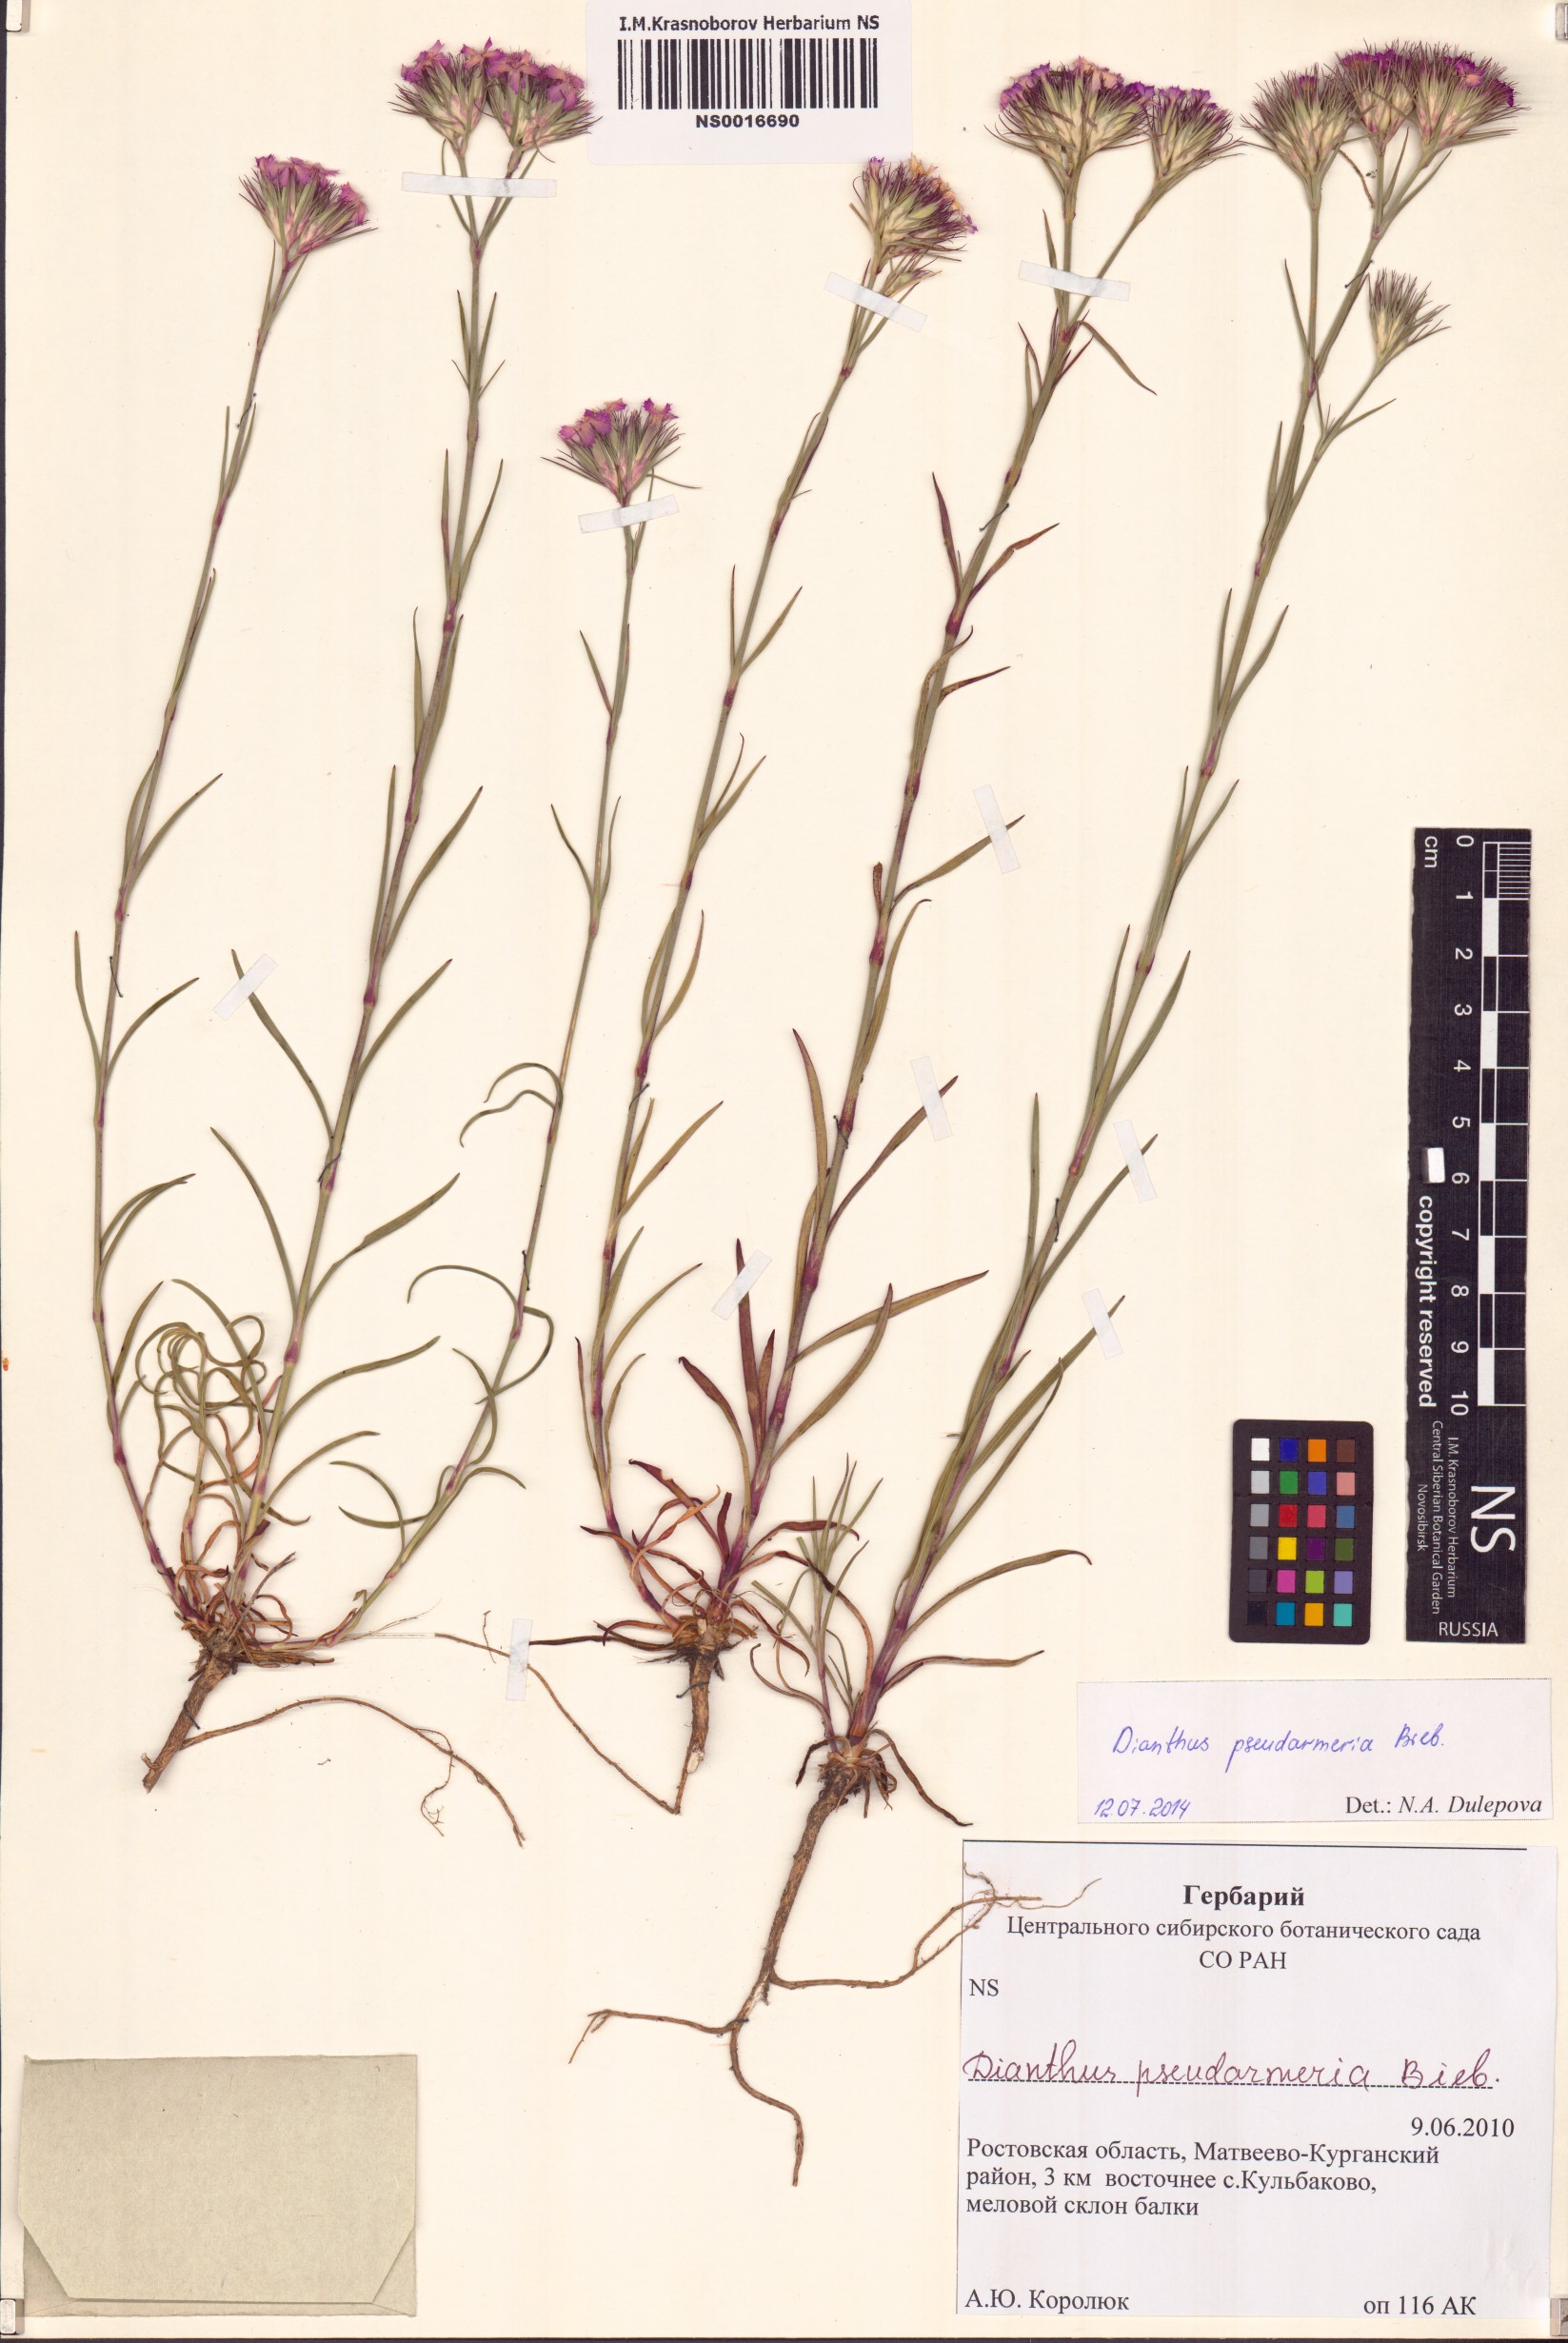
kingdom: Plantae
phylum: Tracheophyta
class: Magnoliopsida
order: Caryophyllales
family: Caryophyllaceae
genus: Dianthus
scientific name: Dianthus pseudarmeria
